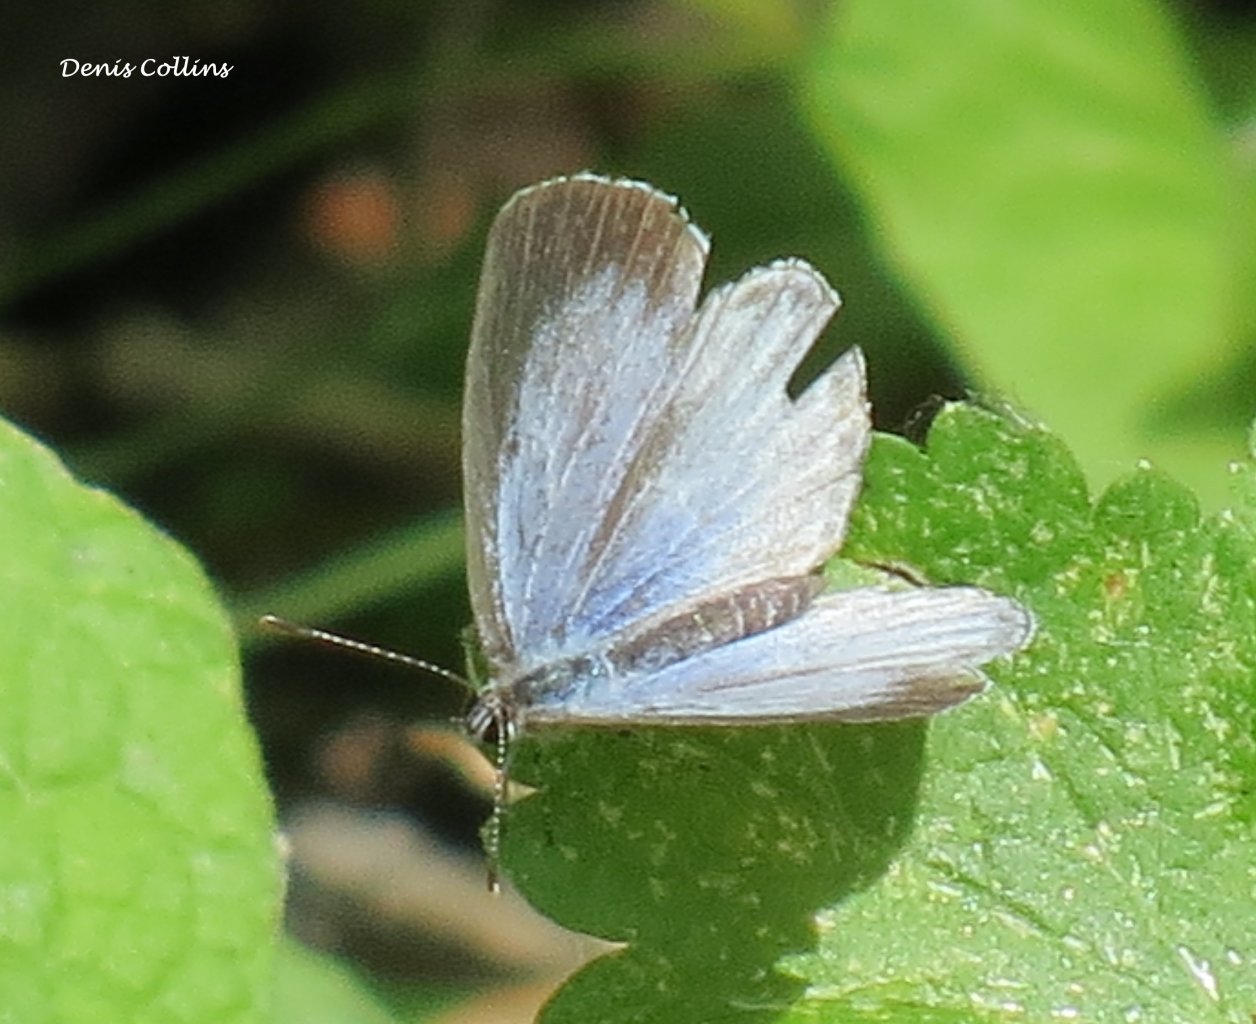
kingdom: Animalia
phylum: Arthropoda
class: Insecta
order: Lepidoptera
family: Lycaenidae
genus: Celastrina
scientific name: Celastrina lucia
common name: Northern Spring Azure
